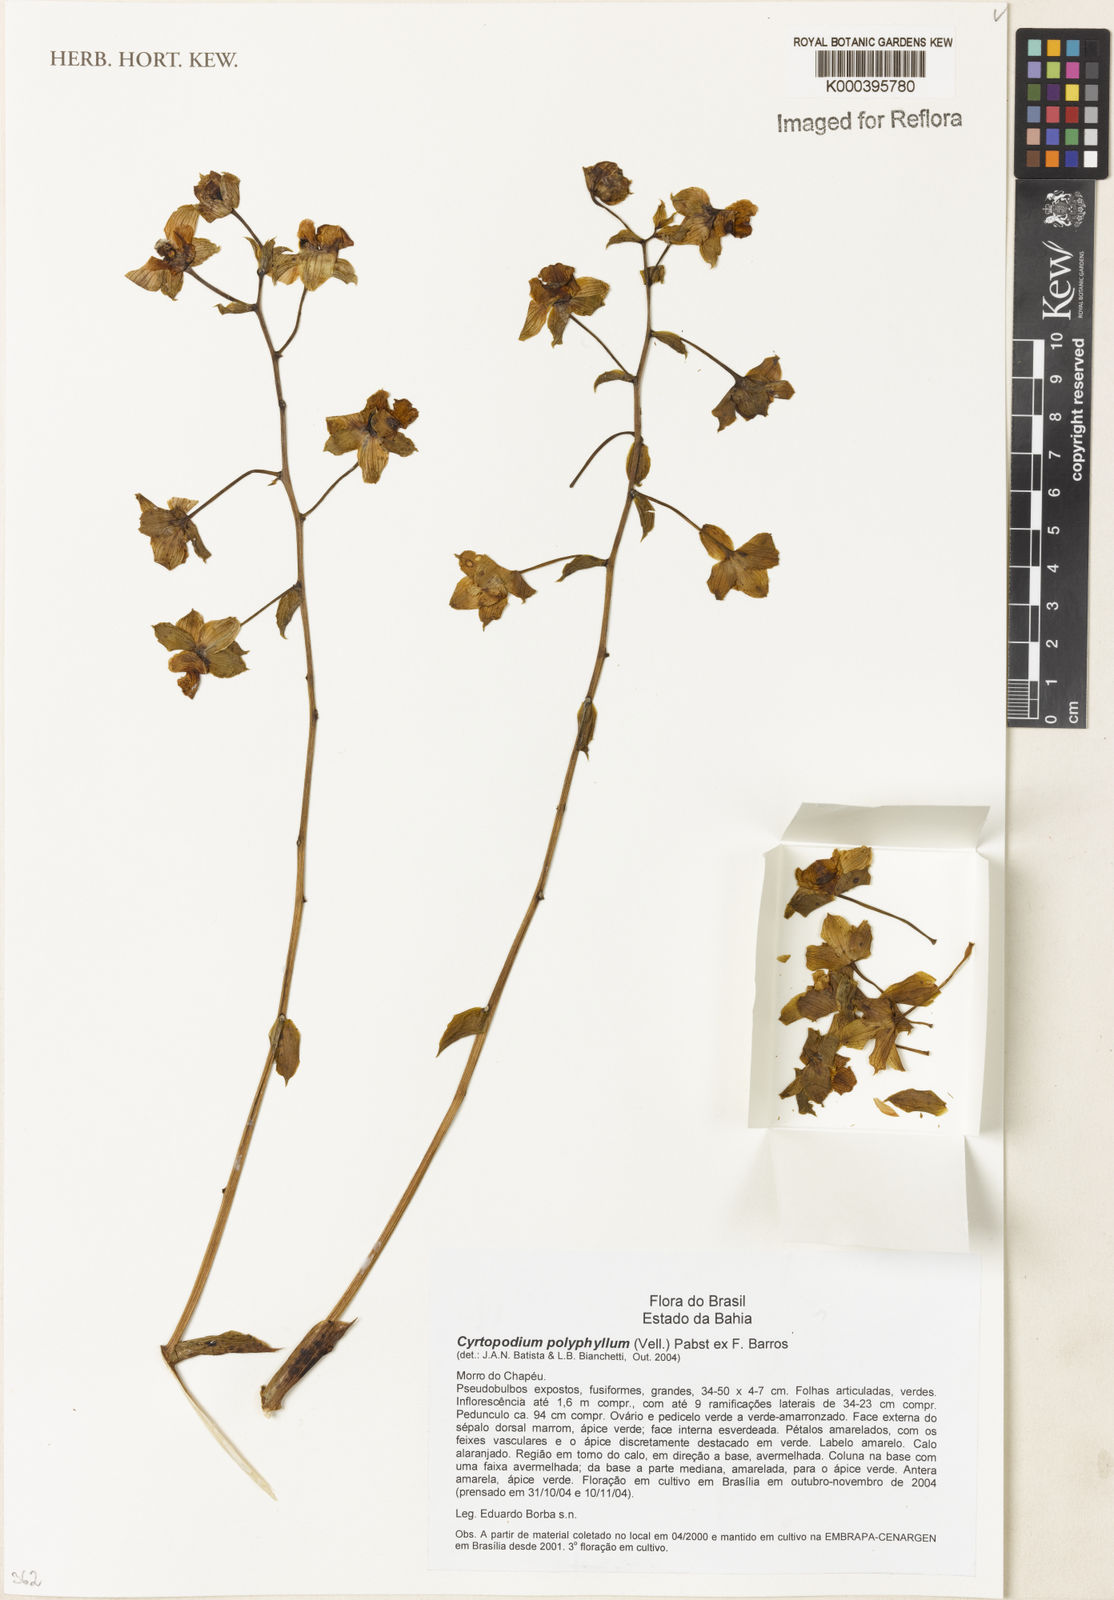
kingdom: Plantae
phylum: Tracheophyta
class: Liliopsida
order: Asparagales
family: Orchidaceae
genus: Cyrtopodium
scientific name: Cyrtopodium flavum
